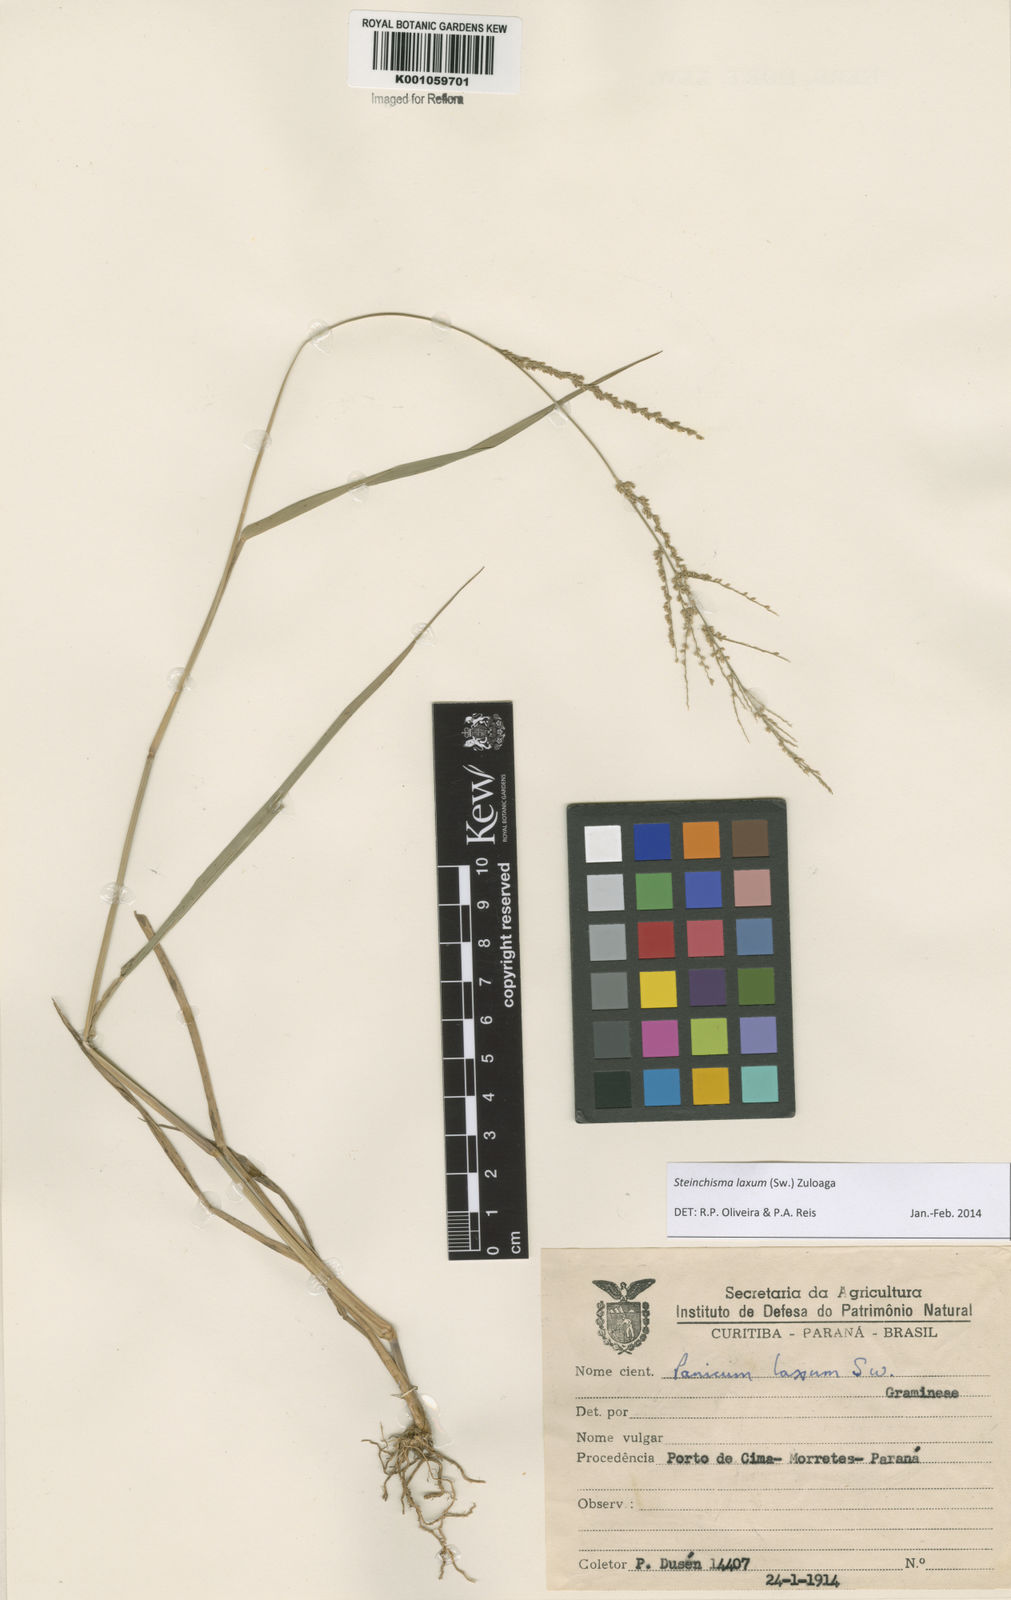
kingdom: Plantae
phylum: Tracheophyta
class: Liliopsida
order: Poales
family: Poaceae
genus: Steinchisma
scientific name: Steinchisma laxum
